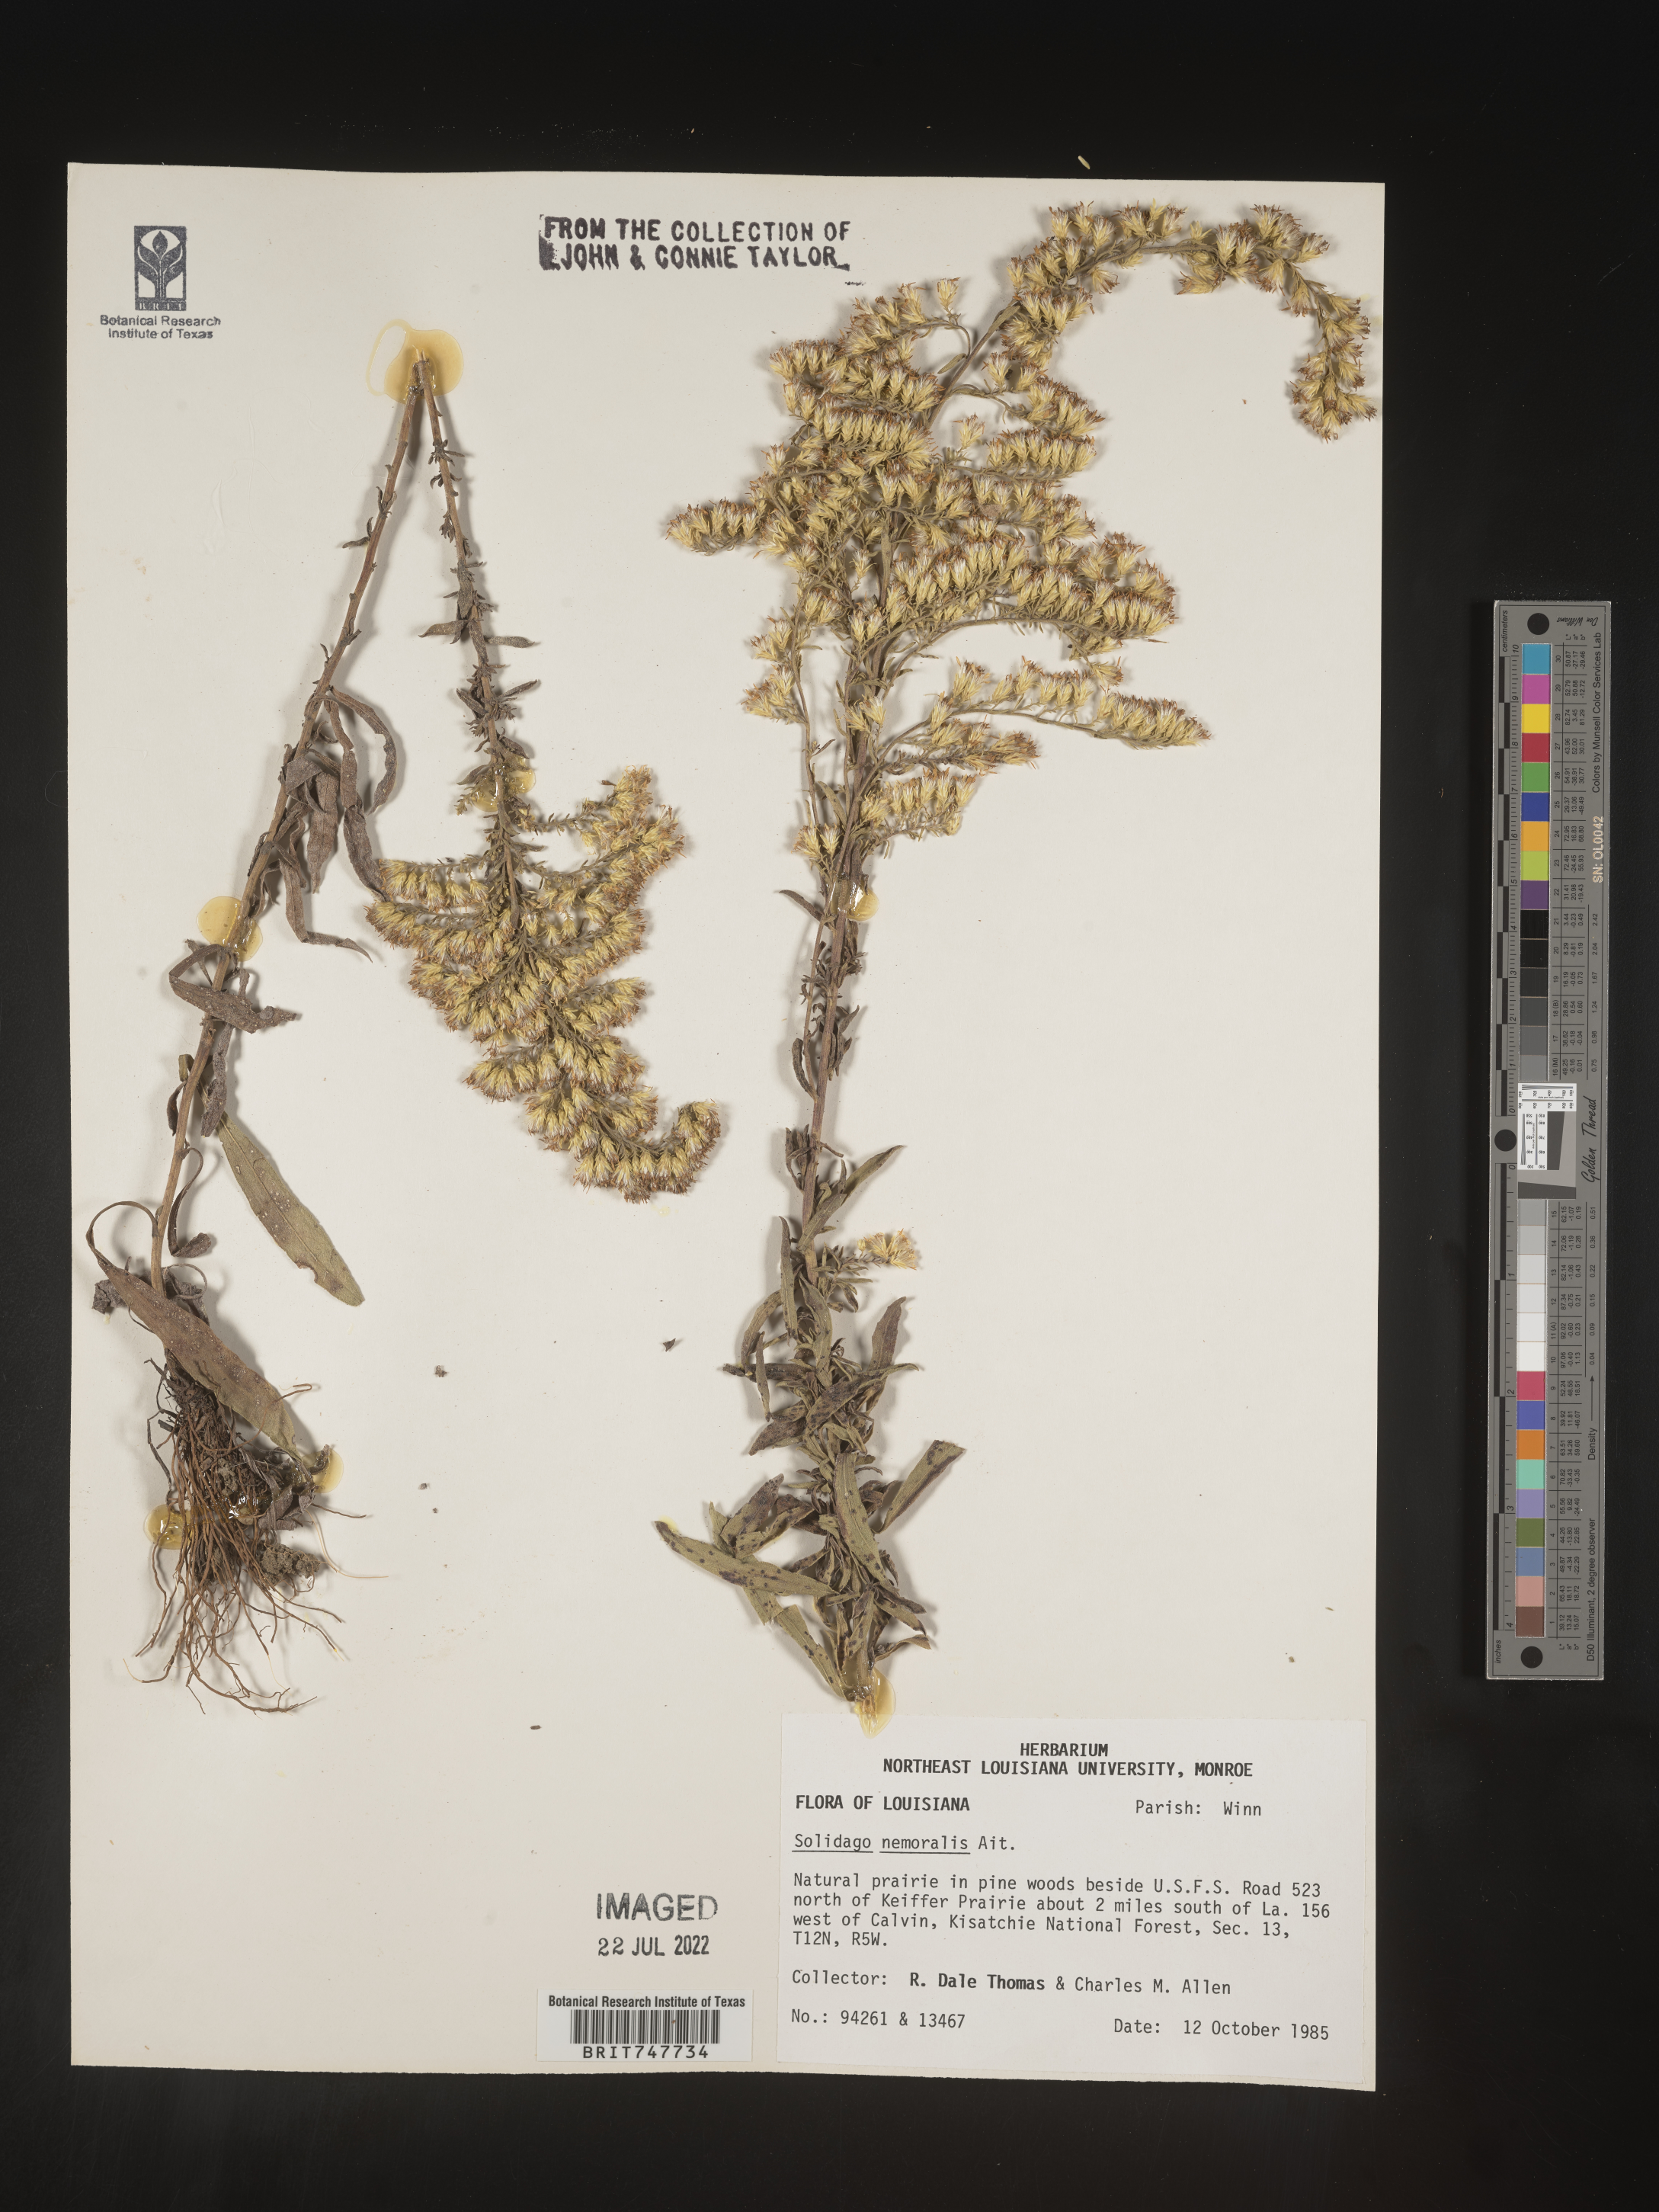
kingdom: Plantae
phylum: Tracheophyta
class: Magnoliopsida
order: Asterales
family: Asteraceae
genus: Solidago
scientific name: Solidago nemoralis
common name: Grey goldenrod
